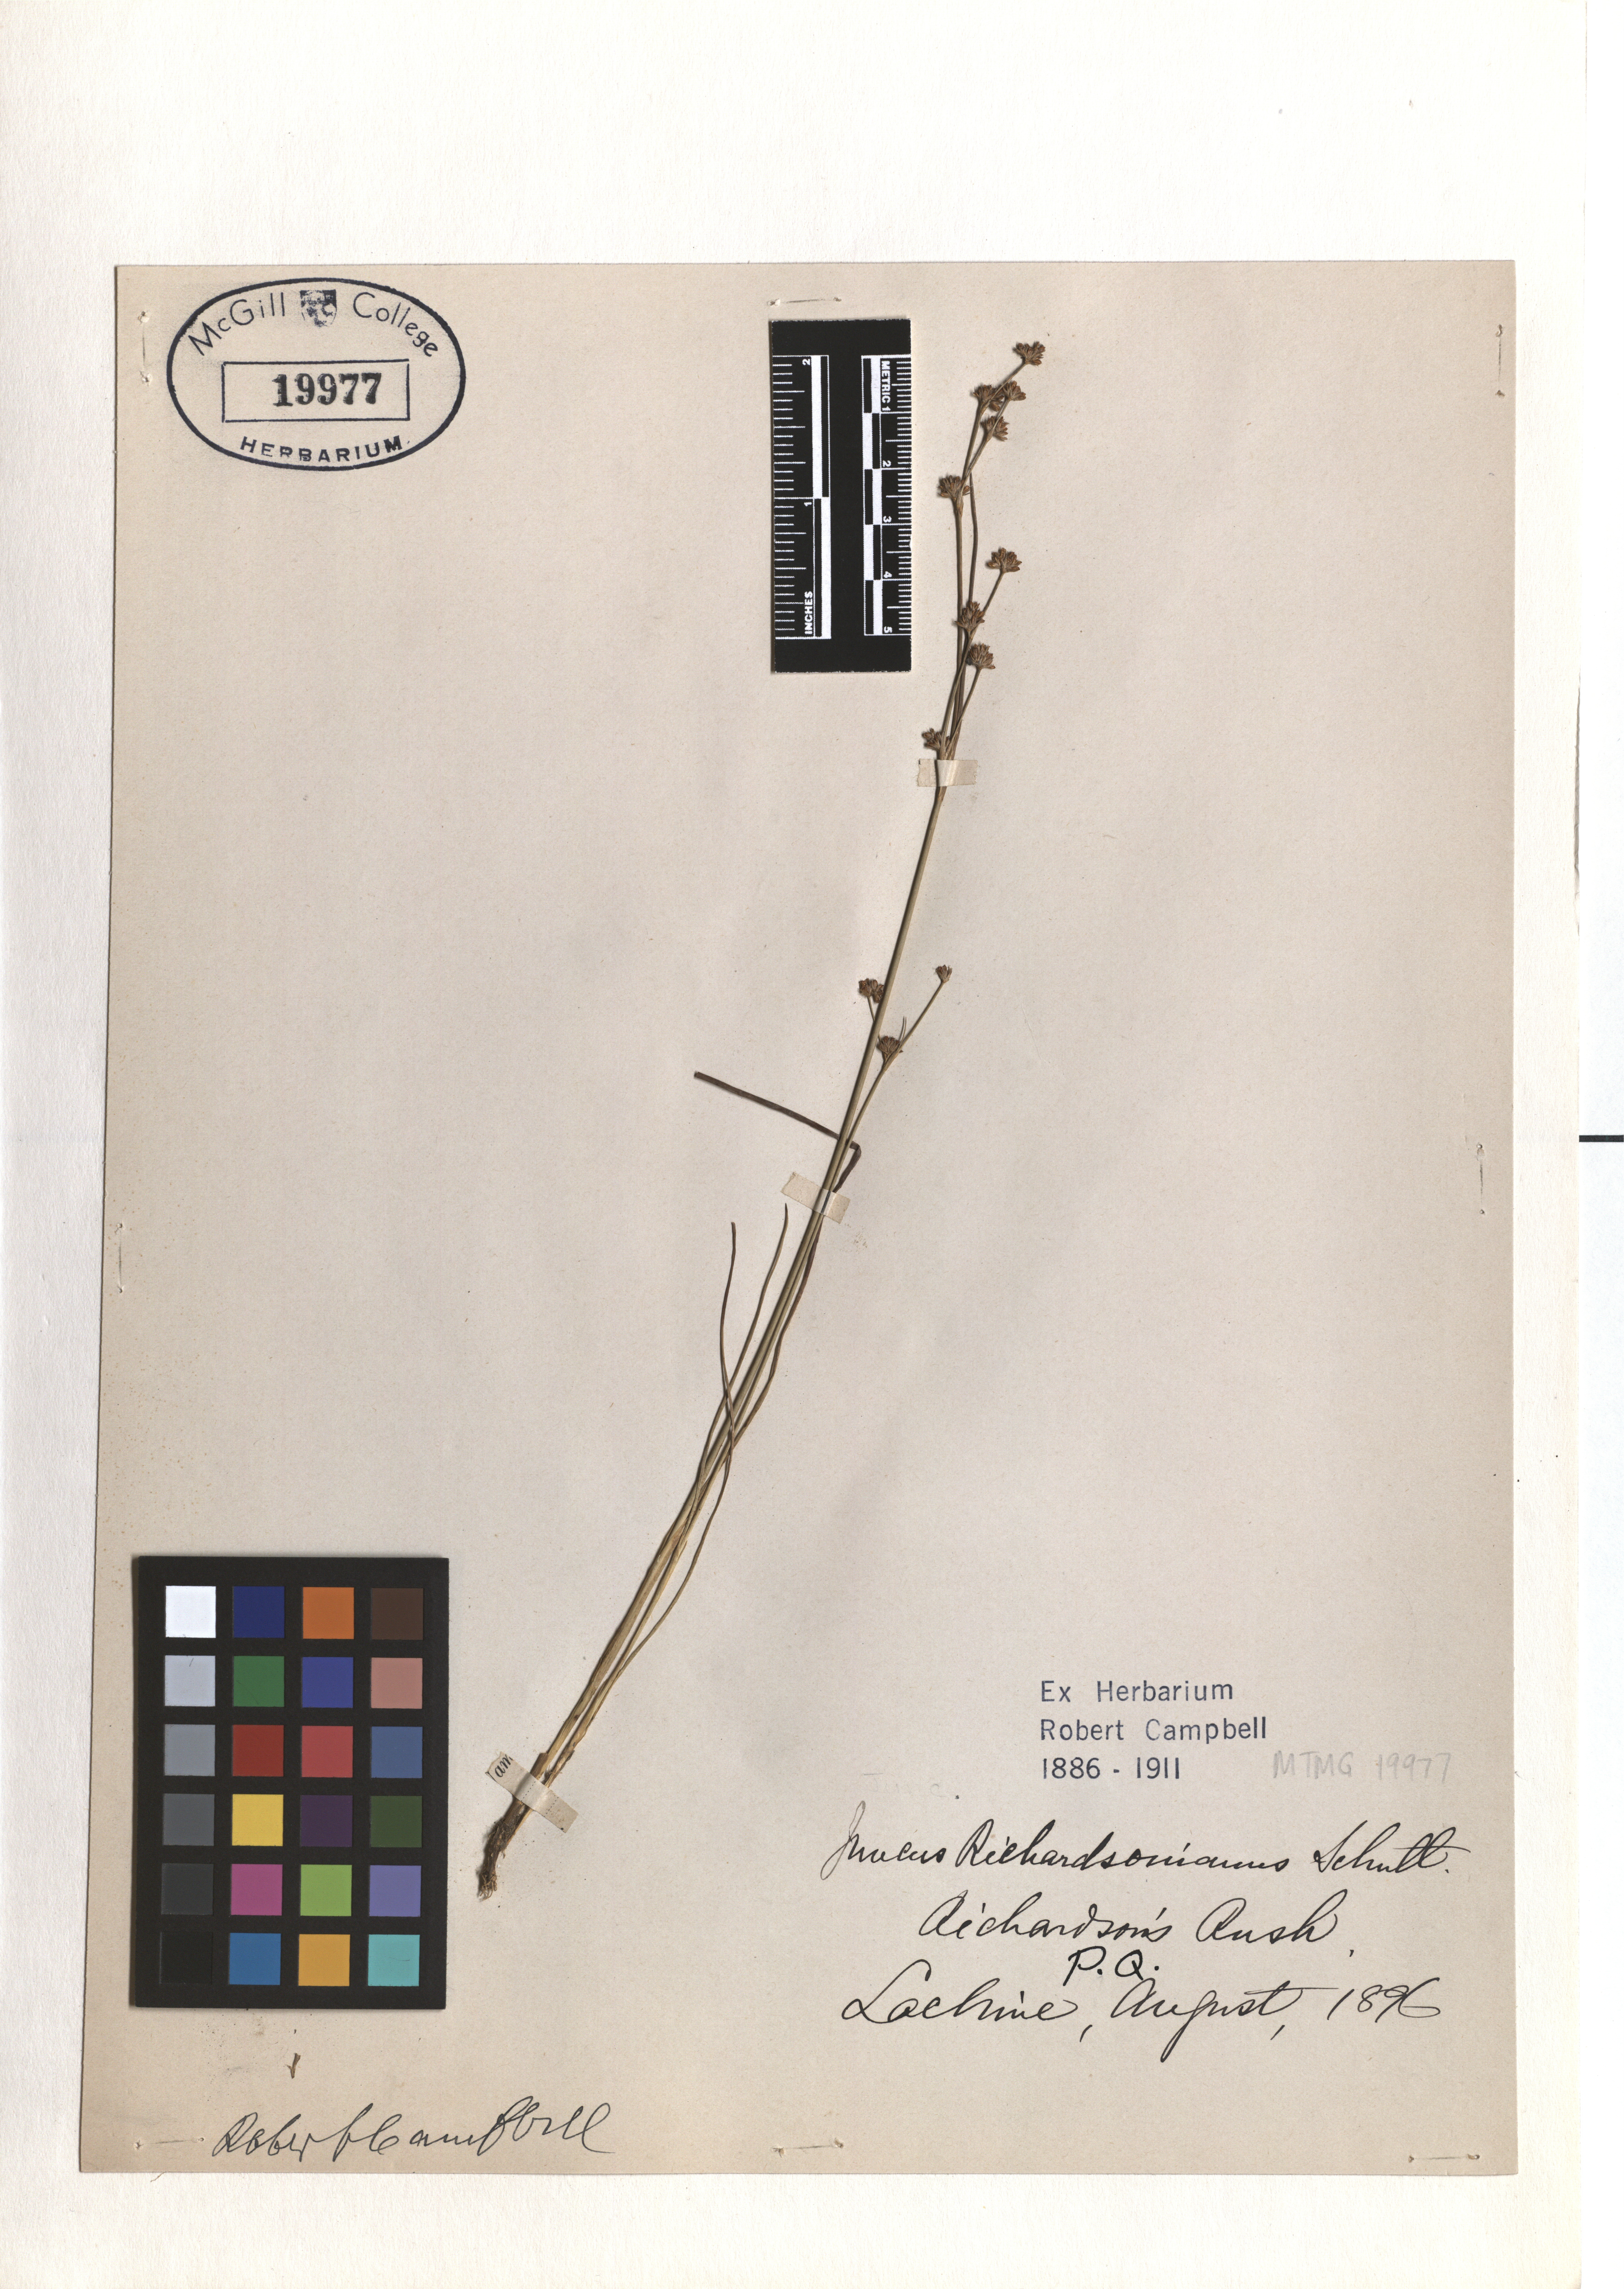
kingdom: Plantae
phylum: Tracheophyta
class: Liliopsida
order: Poales
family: Juncaceae
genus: Juncus
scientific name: Juncus alpinoarticulatus
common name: Alpine rush
